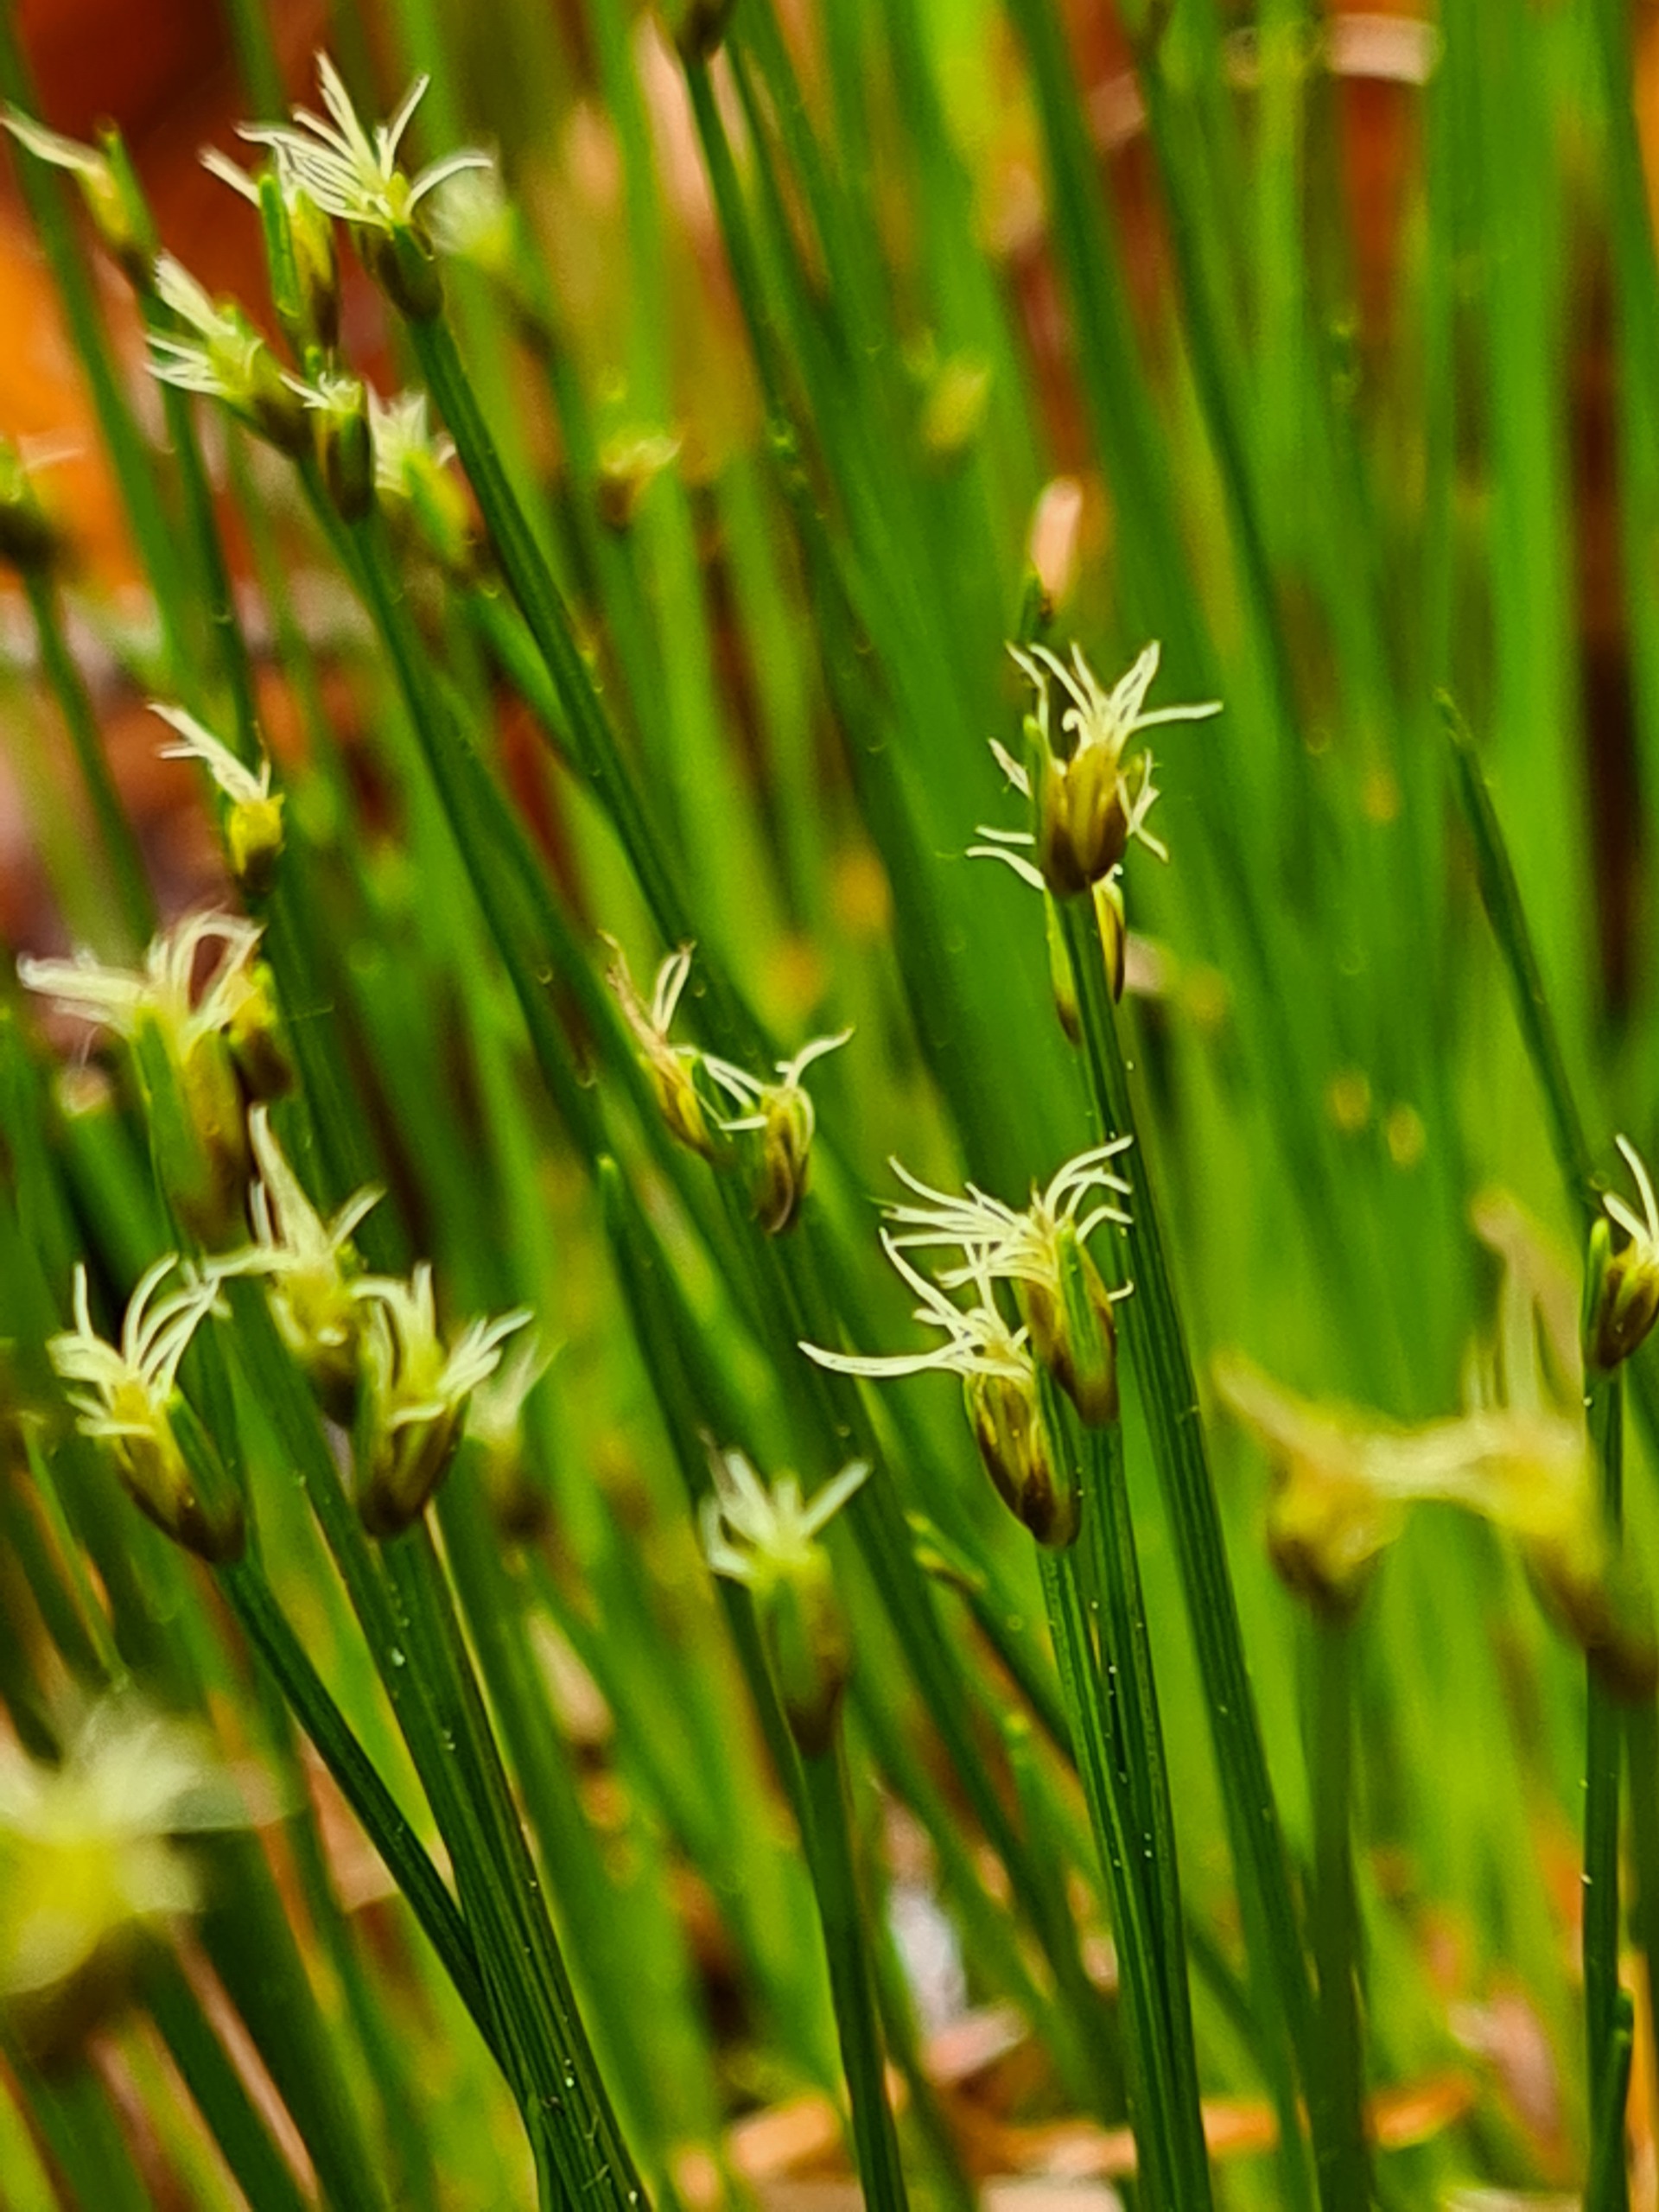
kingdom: Plantae
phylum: Tracheophyta
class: Liliopsida
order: Poales
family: Cyperaceae
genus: Trichophorum
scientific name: Trichophorum cespitosum
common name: Tuekogleaks
